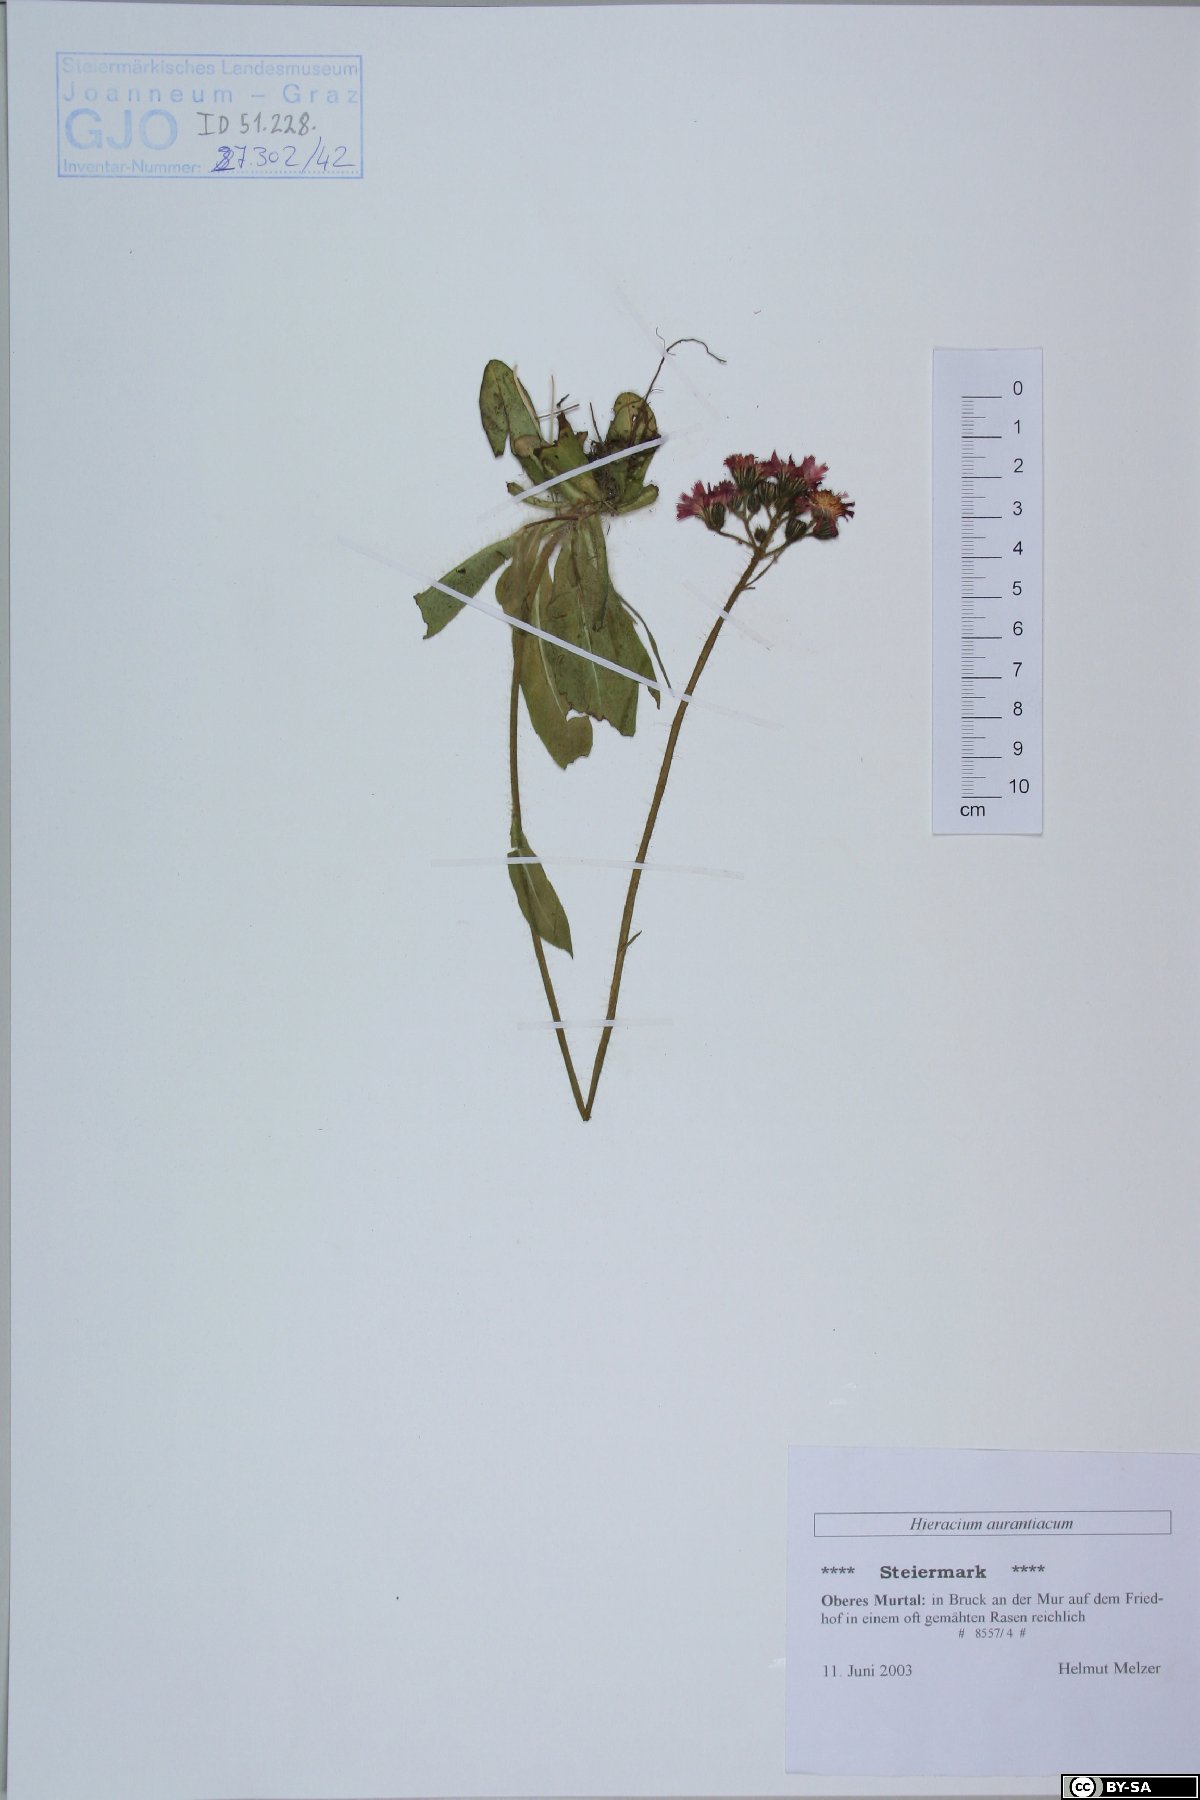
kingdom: Plantae
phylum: Tracheophyta
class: Magnoliopsida
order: Asterales
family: Asteraceae
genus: Pilosella
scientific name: Pilosella aurantiaca
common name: Fox-and-cubs
